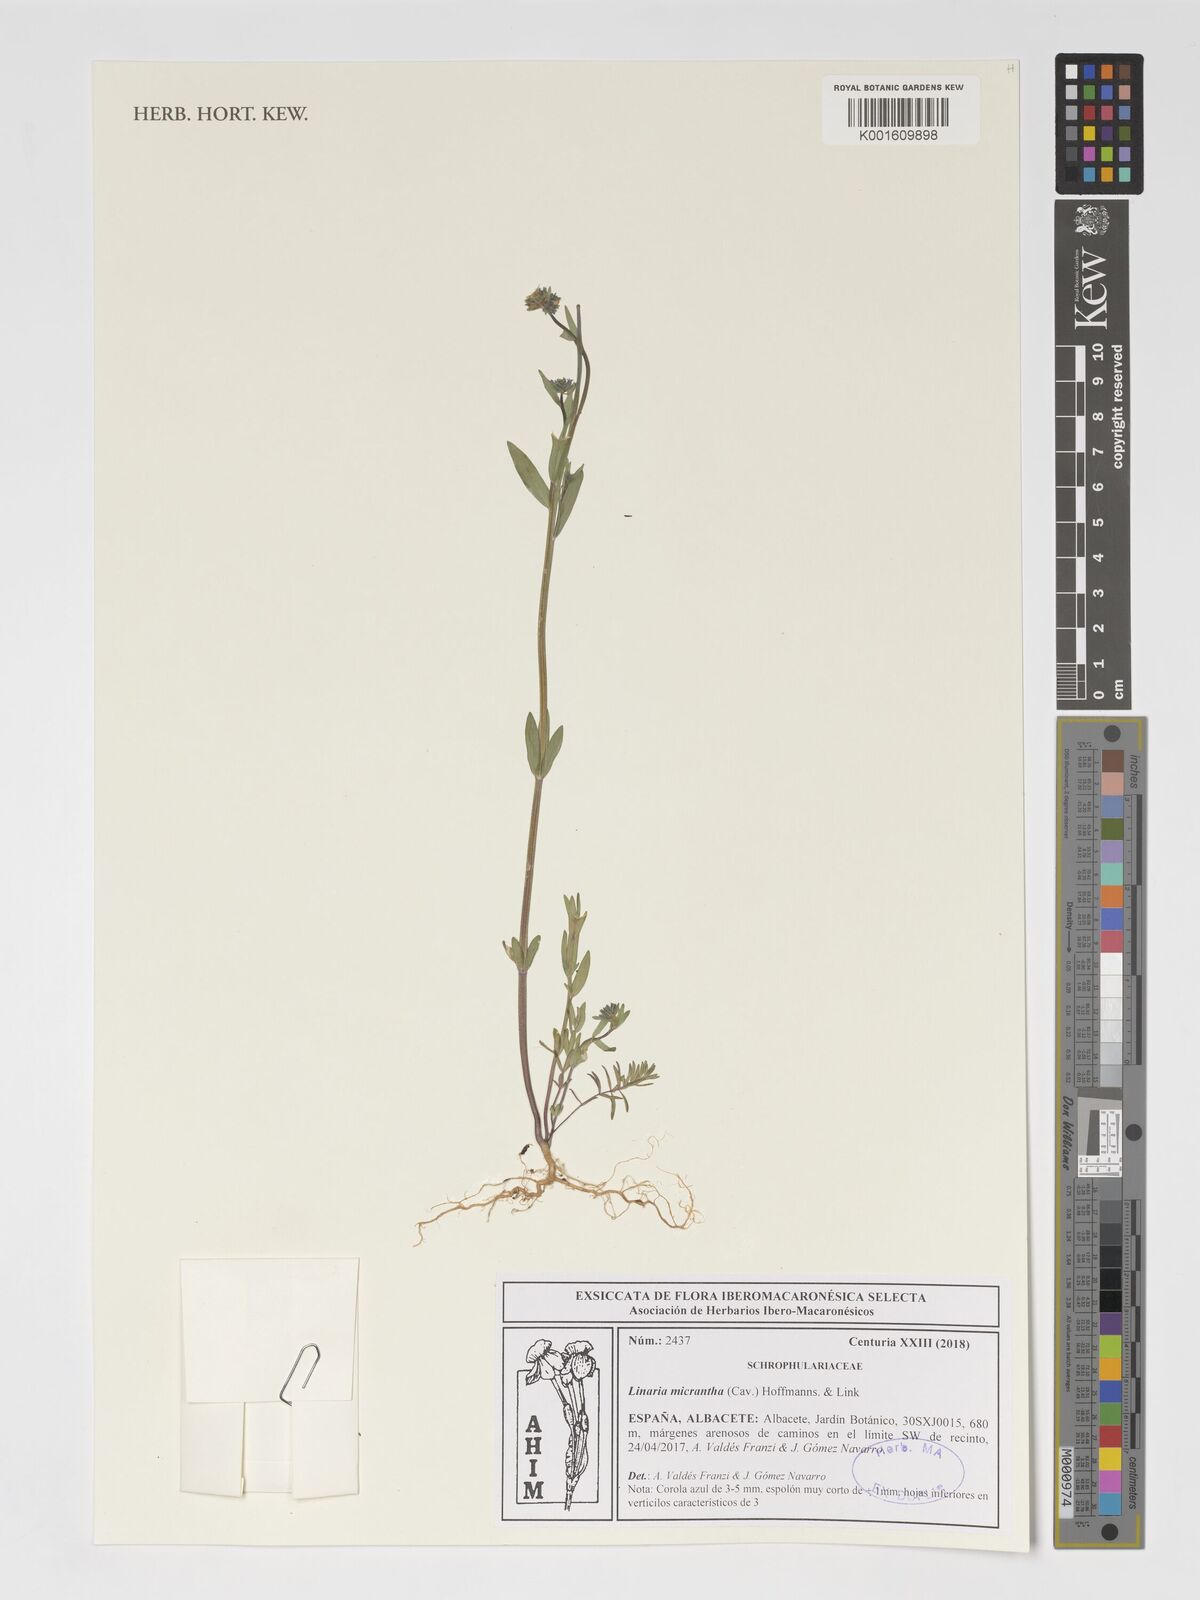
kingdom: Plantae
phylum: Tracheophyta
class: Magnoliopsida
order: Lamiales
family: Plantaginaceae
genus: Linaria
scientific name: Linaria micrantha
